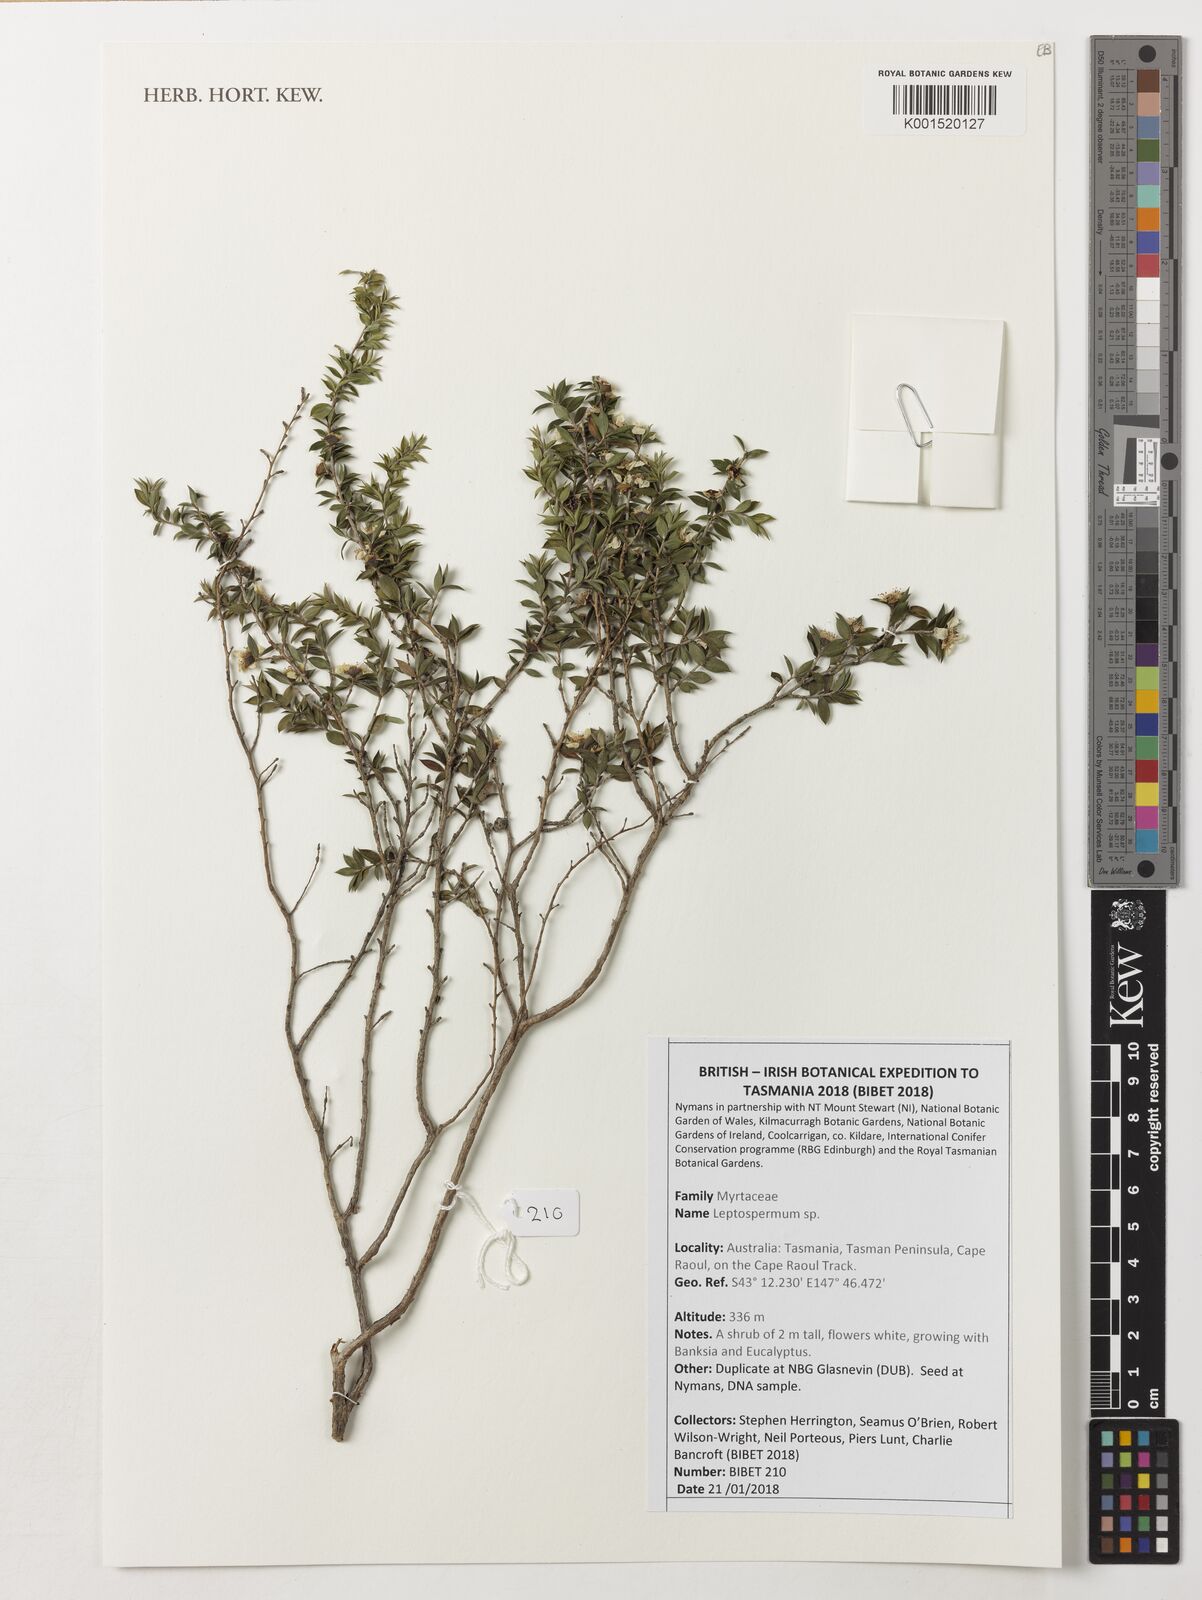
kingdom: Plantae
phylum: Tracheophyta
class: Magnoliopsida
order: Myrtales
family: Myrtaceae
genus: Leptospermum
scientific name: Leptospermum
